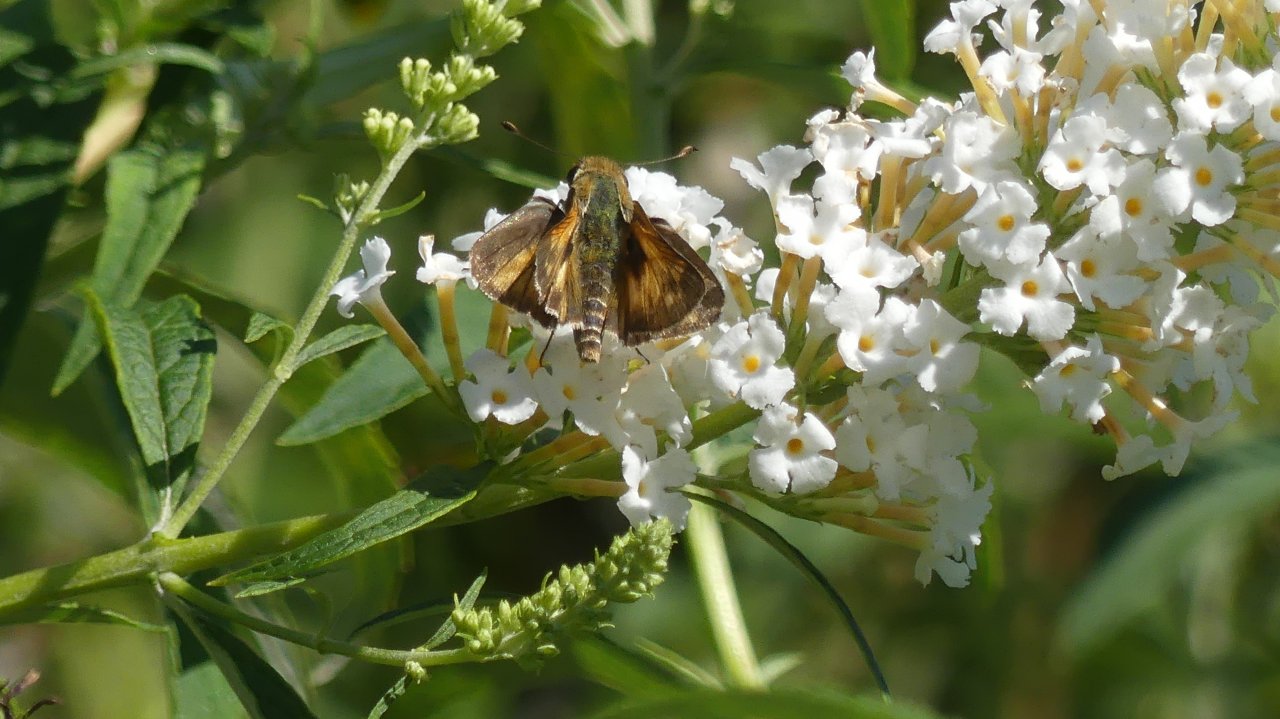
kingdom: Animalia
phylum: Arthropoda
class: Insecta
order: Lepidoptera
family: Hesperiidae
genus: Atalopedes
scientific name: Atalopedes campestris
